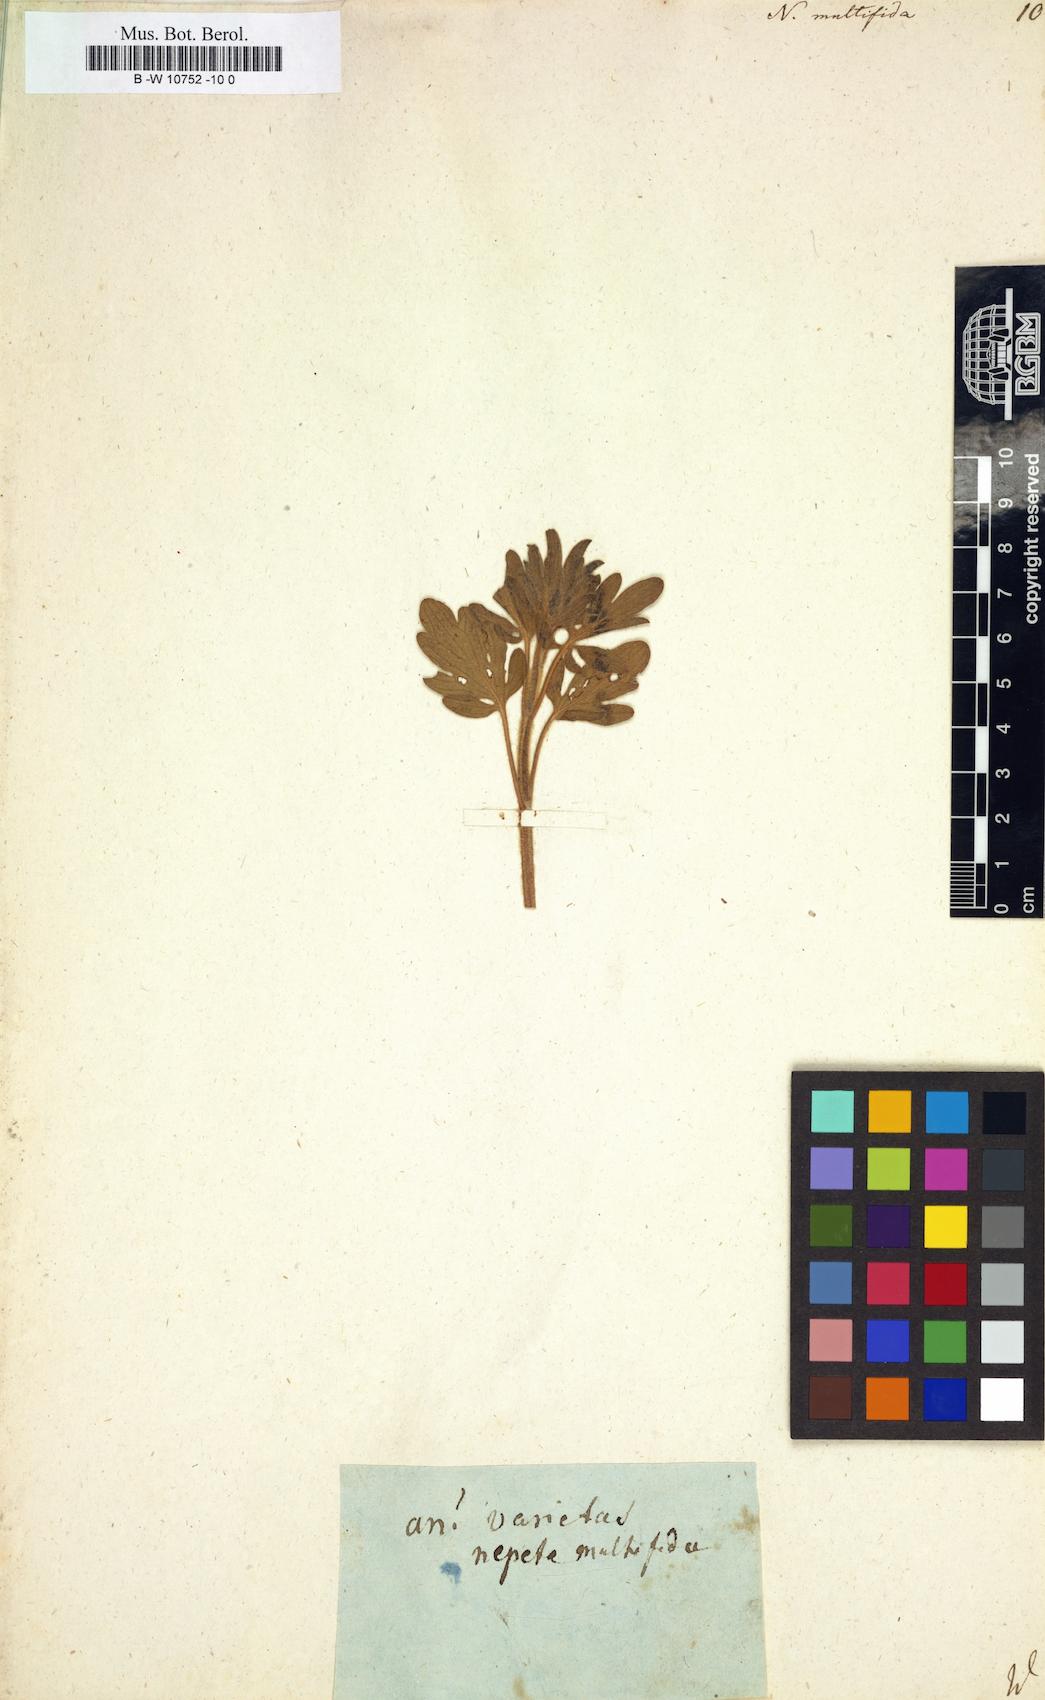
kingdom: Plantae
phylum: Tracheophyta
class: Magnoliopsida
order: Lamiales
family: Lamiaceae
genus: Nepeta
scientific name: Nepeta multifida
